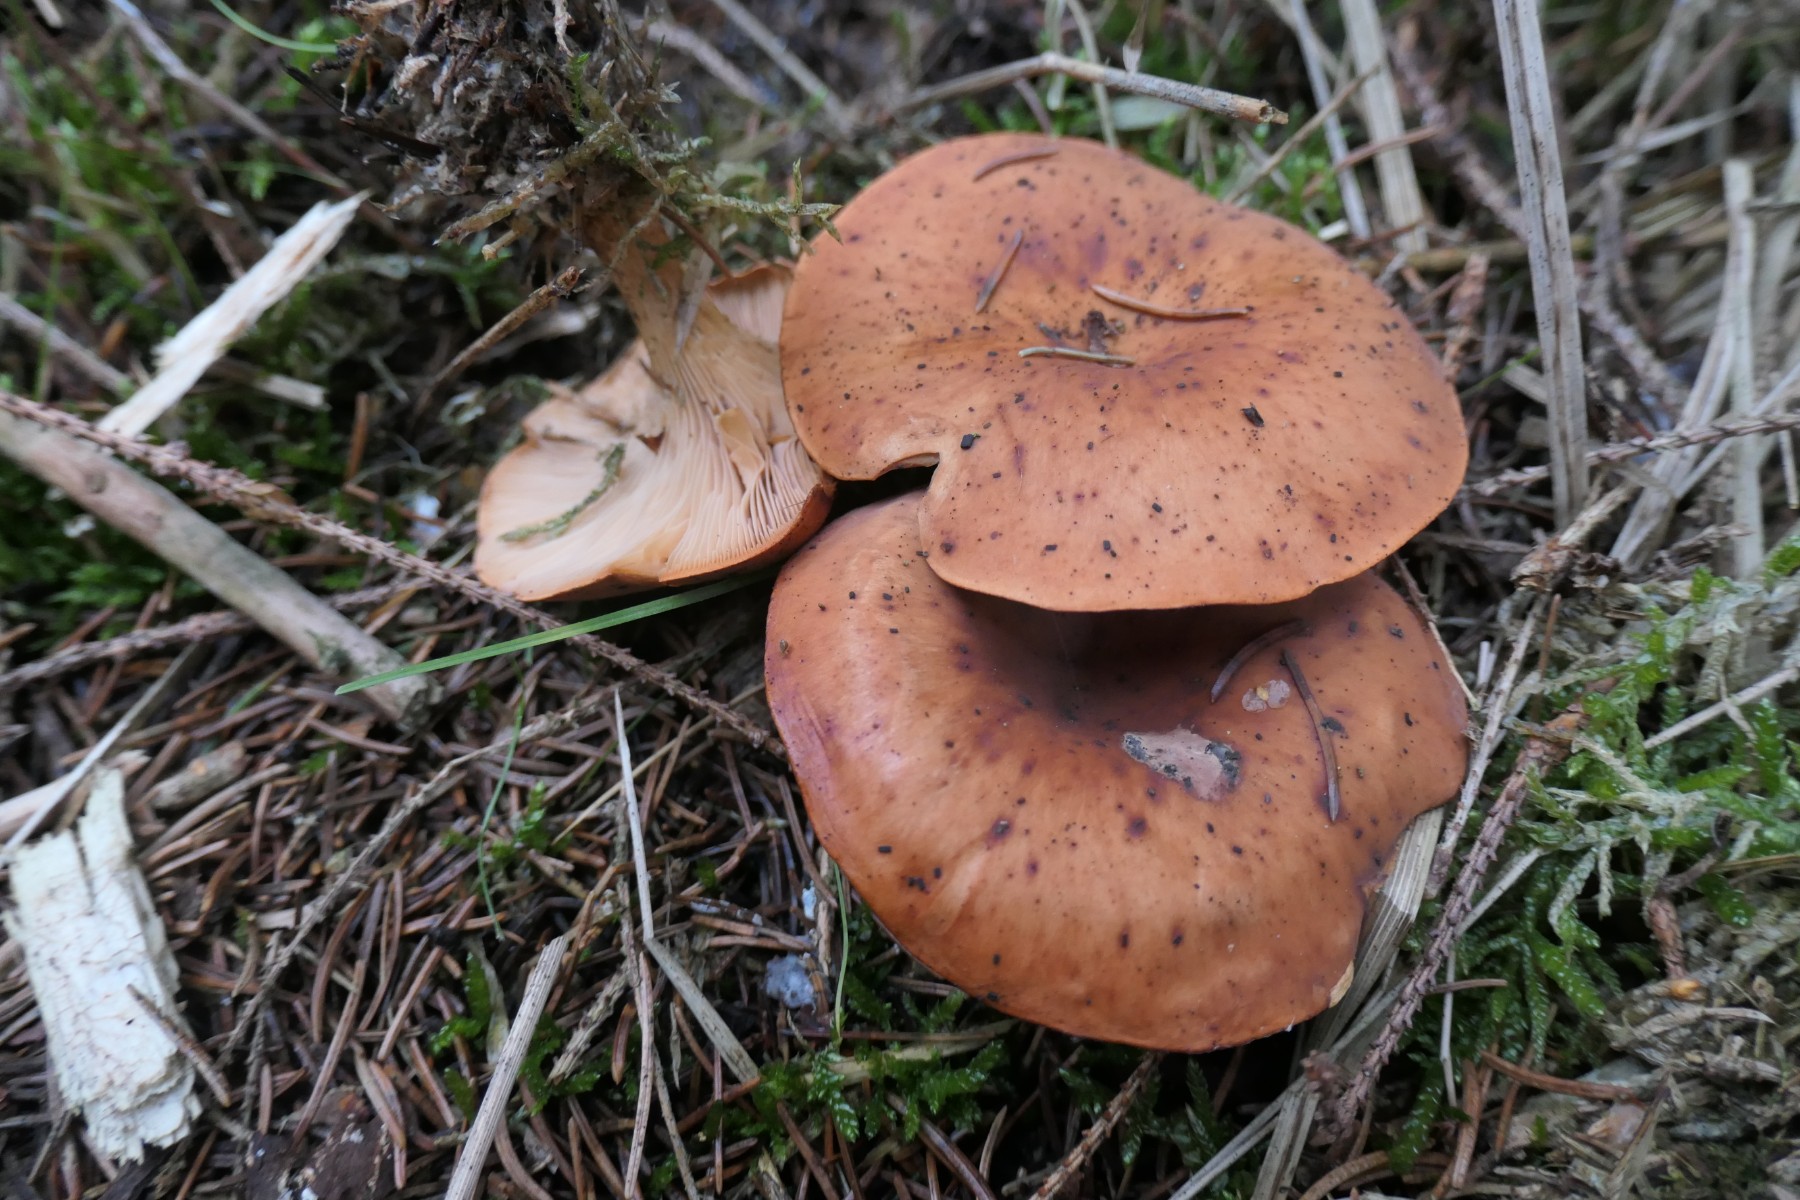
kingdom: Fungi
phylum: Basidiomycota
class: Agaricomycetes
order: Agaricales
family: Tricholomataceae
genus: Paralepista
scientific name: Paralepista flaccida
